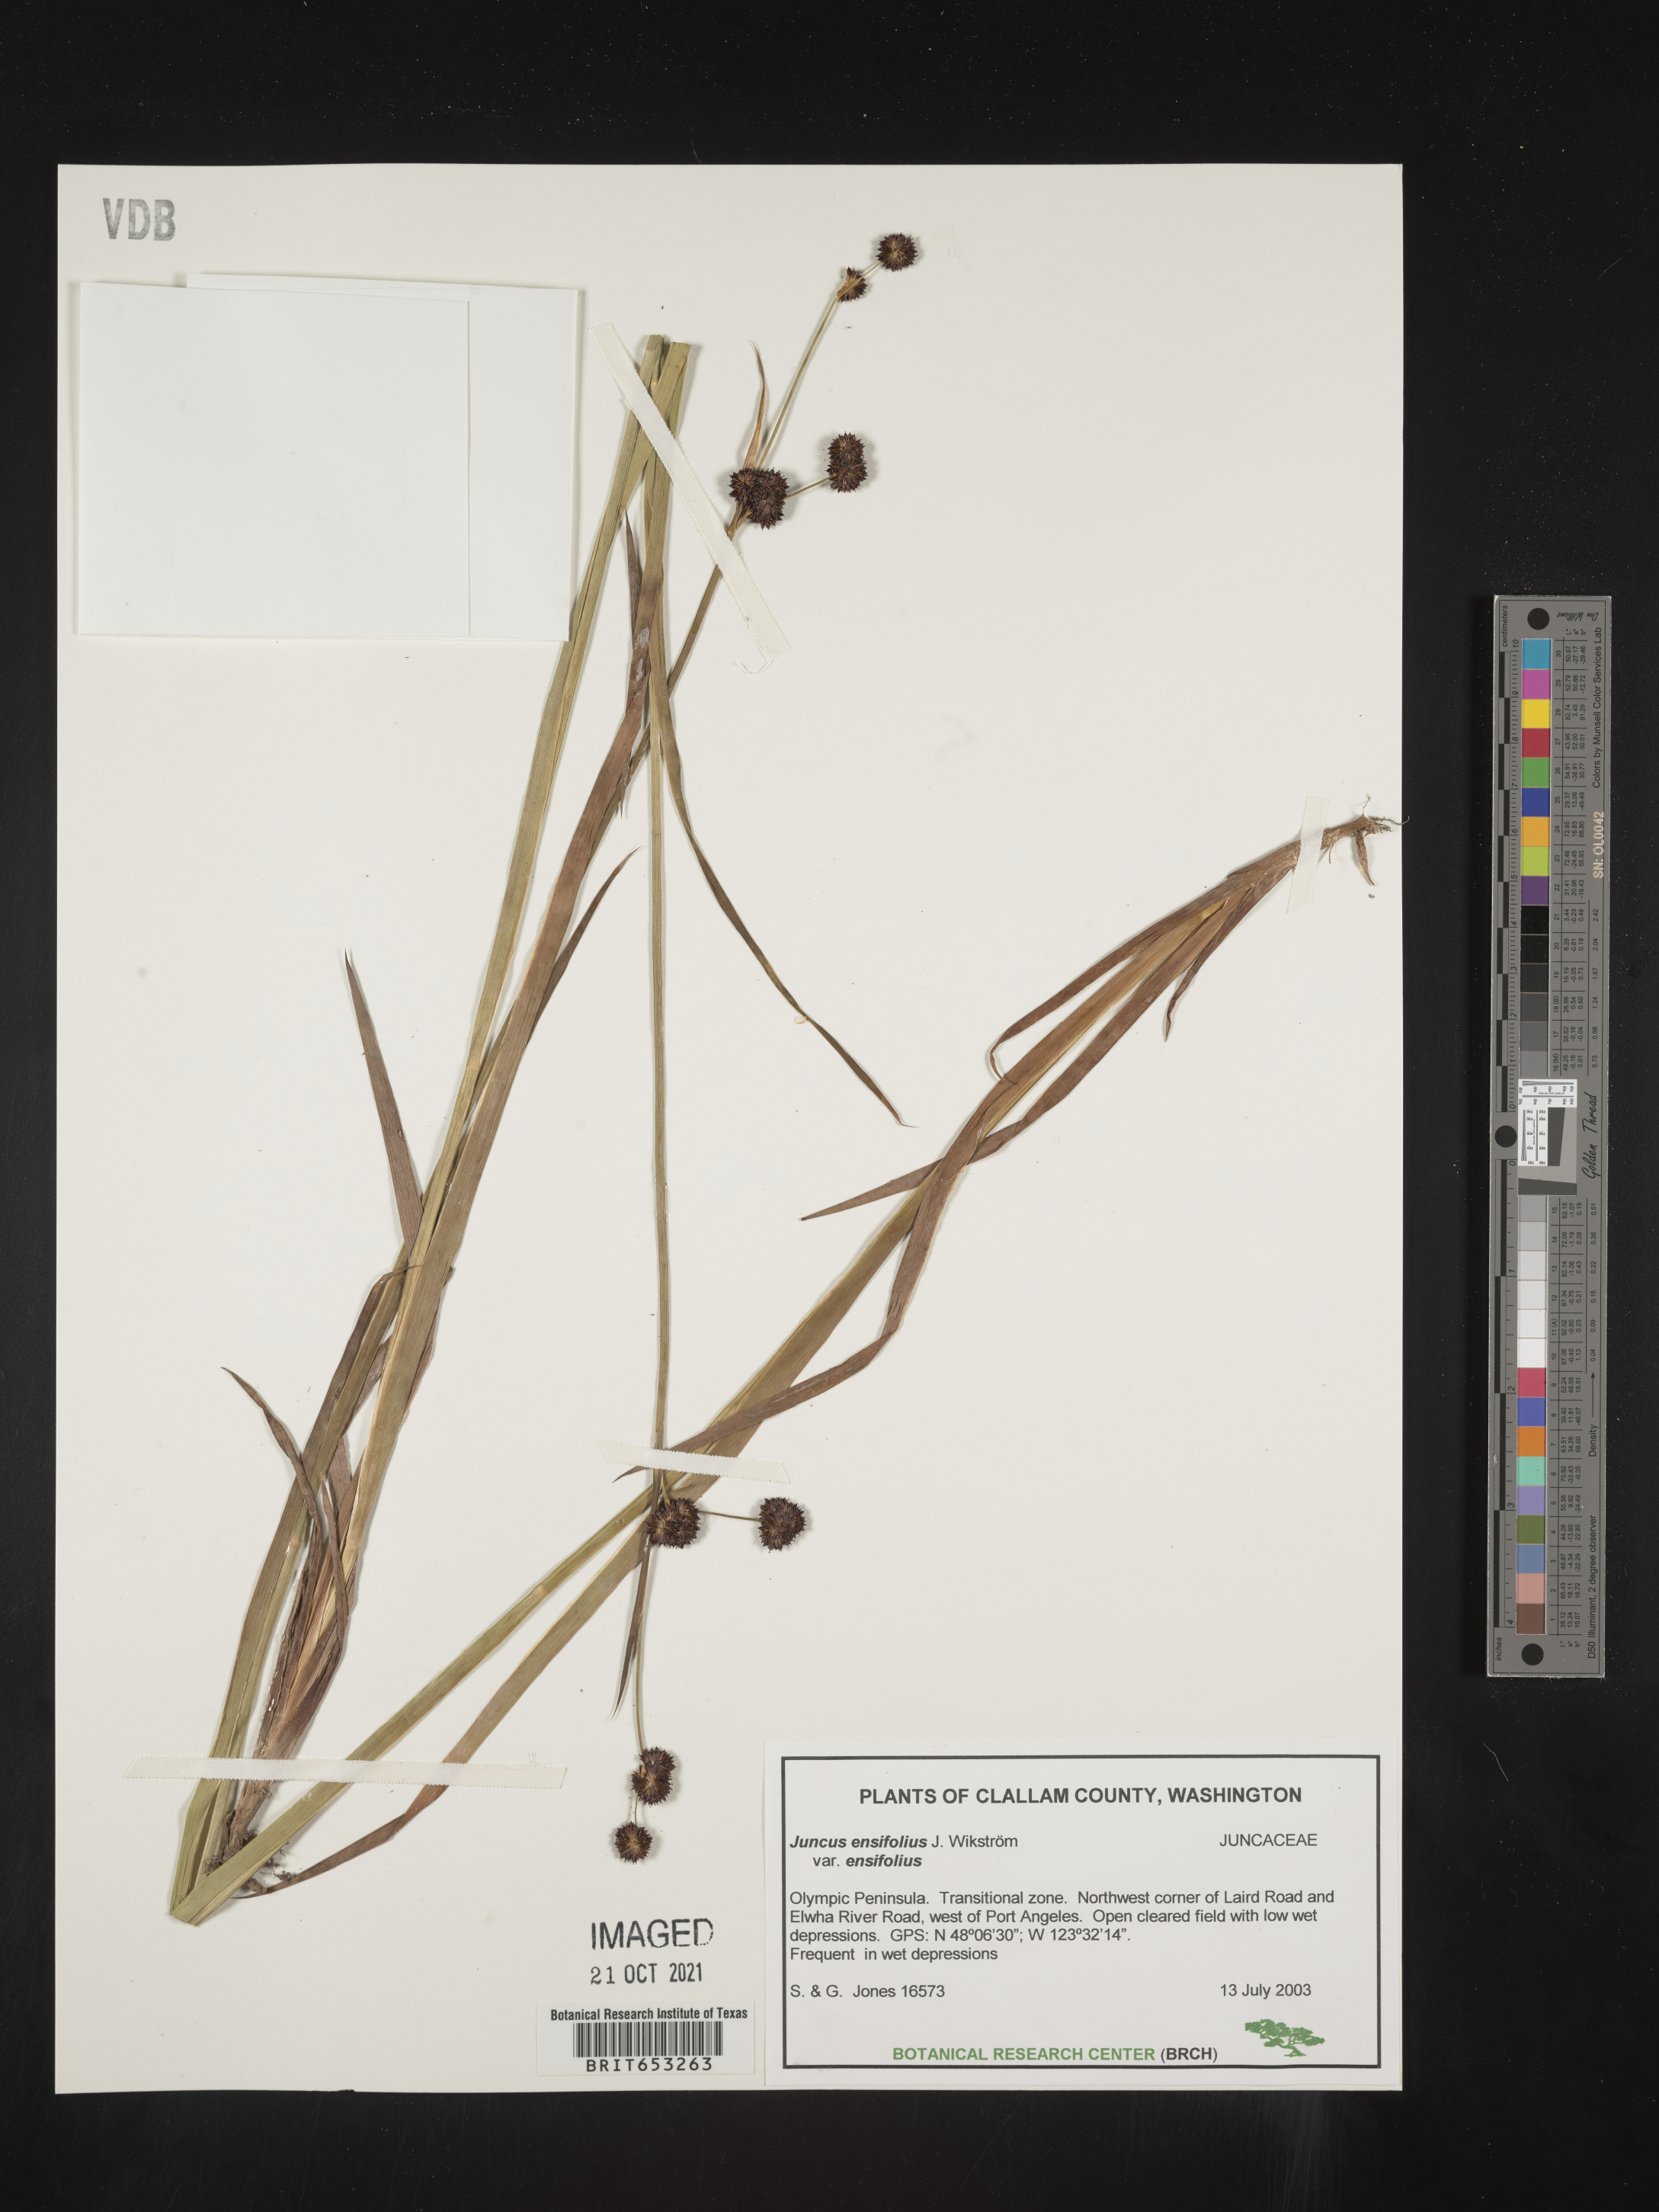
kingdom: Plantae
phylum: Tracheophyta
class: Liliopsida
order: Poales
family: Juncaceae
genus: Juncus
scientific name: Juncus ensifolius
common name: Sword-leaved rush
